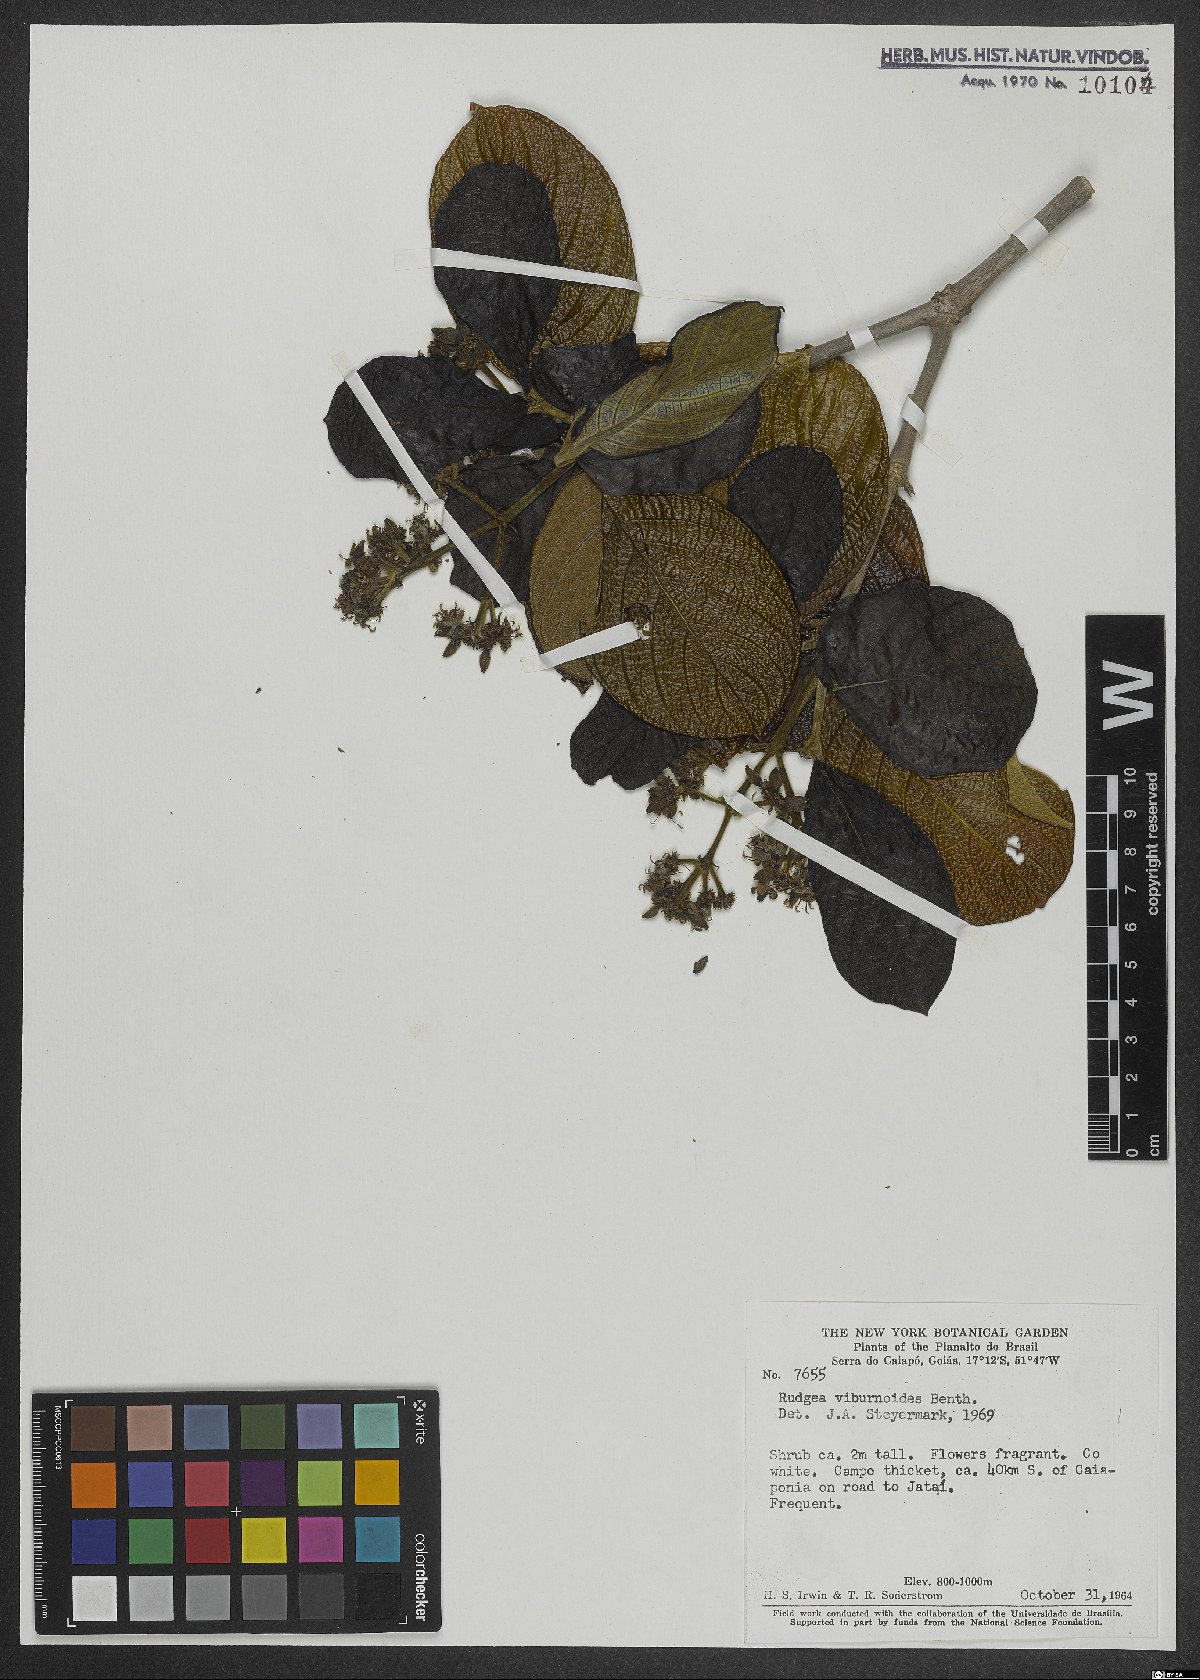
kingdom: Plantae
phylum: Tracheophyta
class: Magnoliopsida
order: Gentianales
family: Rubiaceae
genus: Rudgea
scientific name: Rudgea viburnoides
